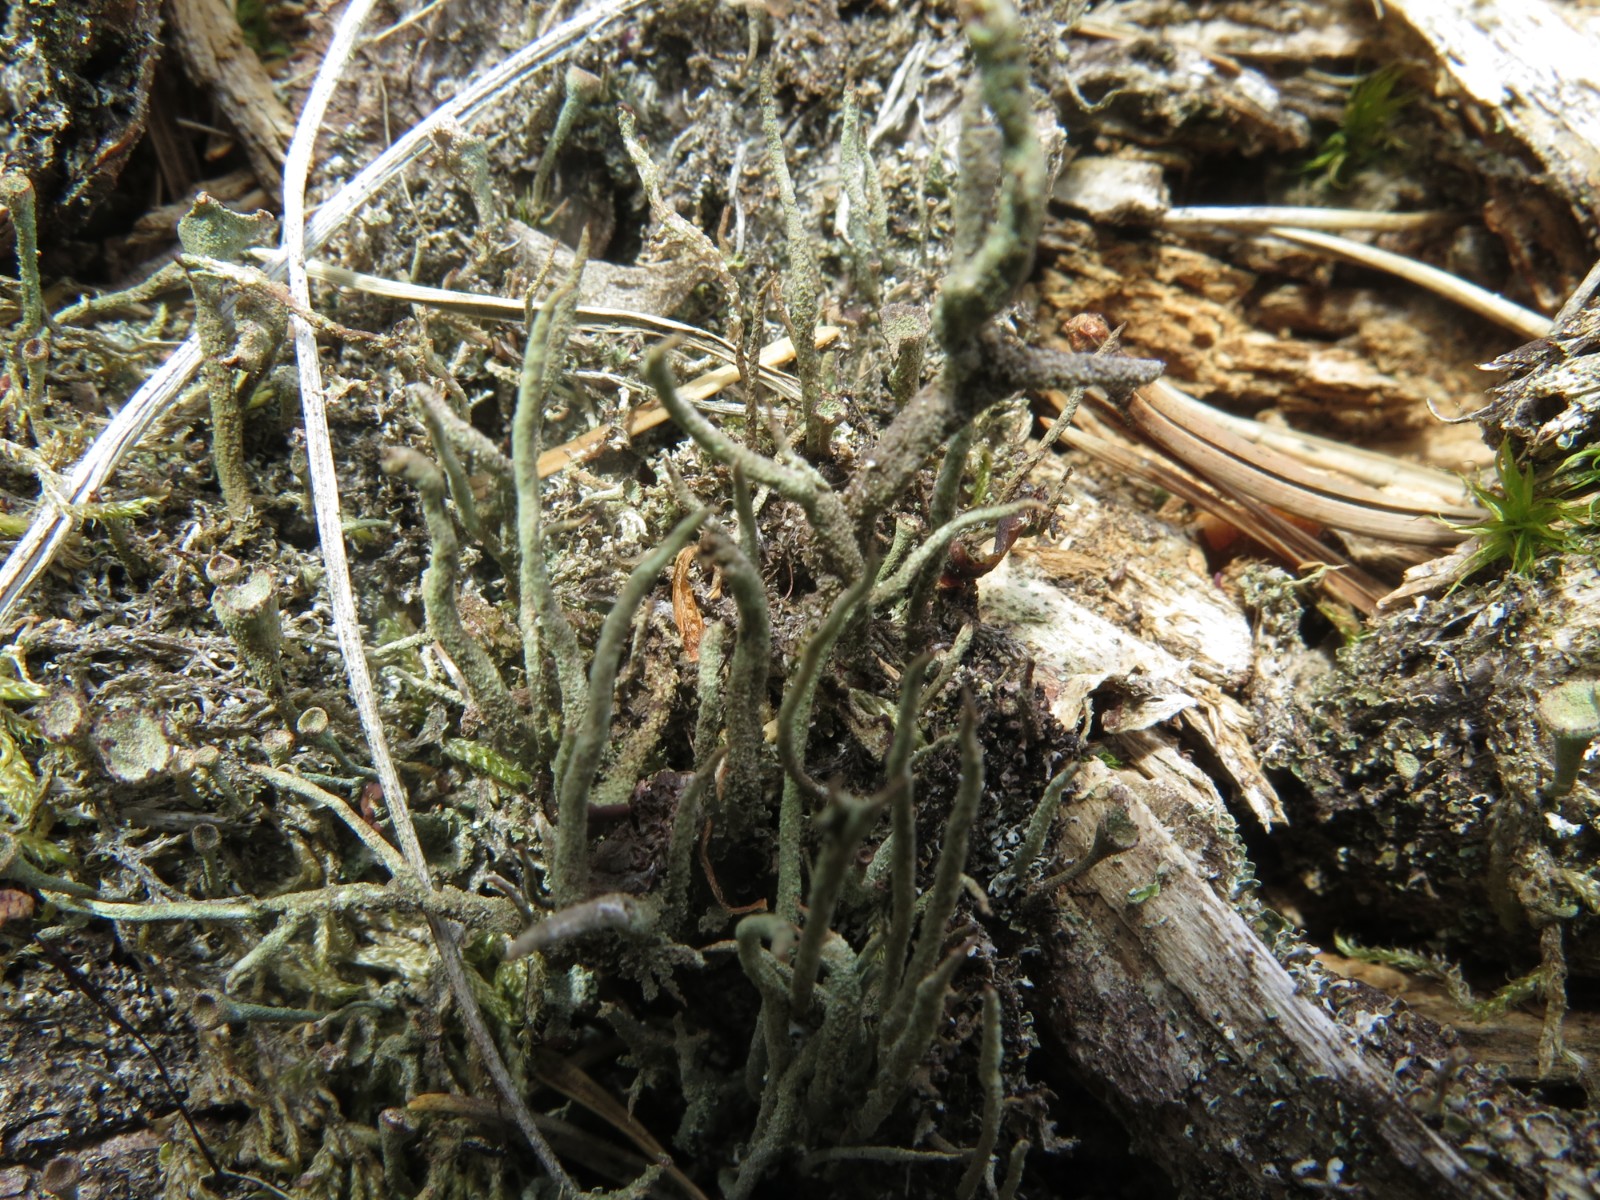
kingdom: Fungi
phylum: Ascomycota
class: Lecanoromycetes
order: Lecanorales
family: Cladoniaceae
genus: Cladonia
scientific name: Cladonia
